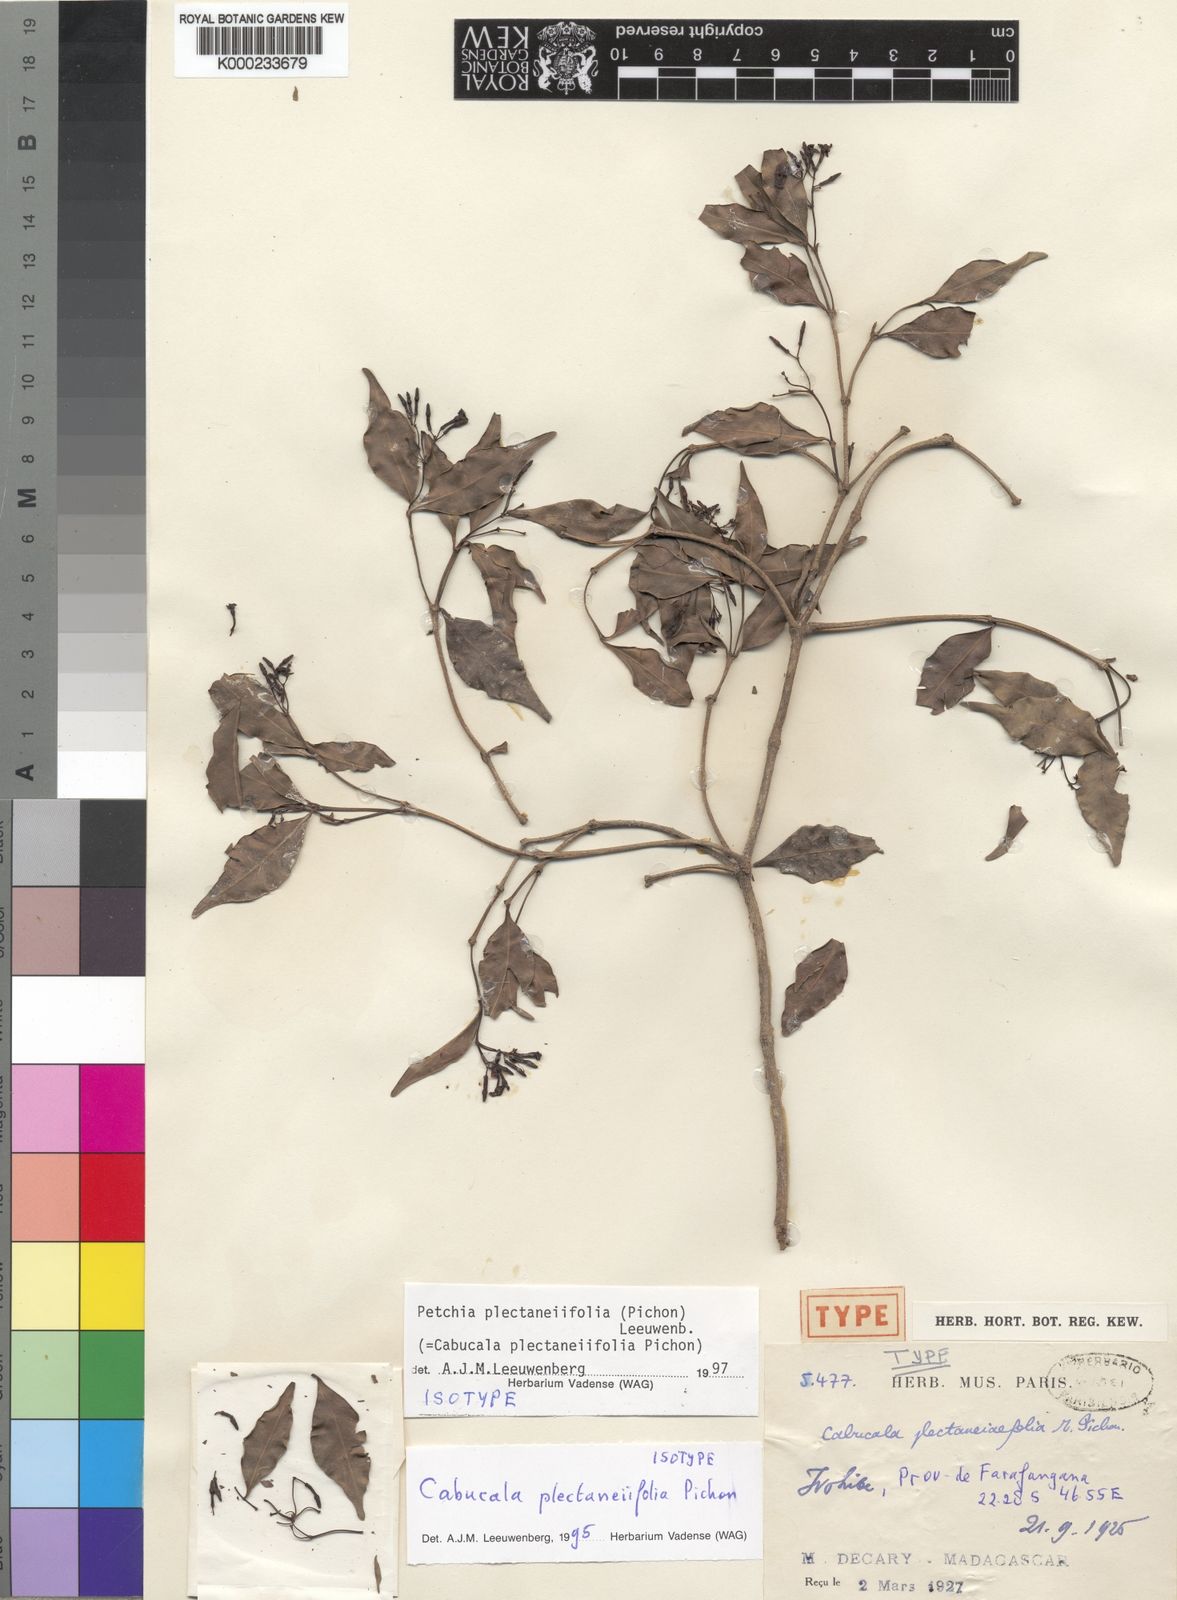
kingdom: Plantae
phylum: Tracheophyta
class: Magnoliopsida
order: Gentianales
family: Apocynaceae
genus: Petchia
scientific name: Petchia plectaneiifolia
